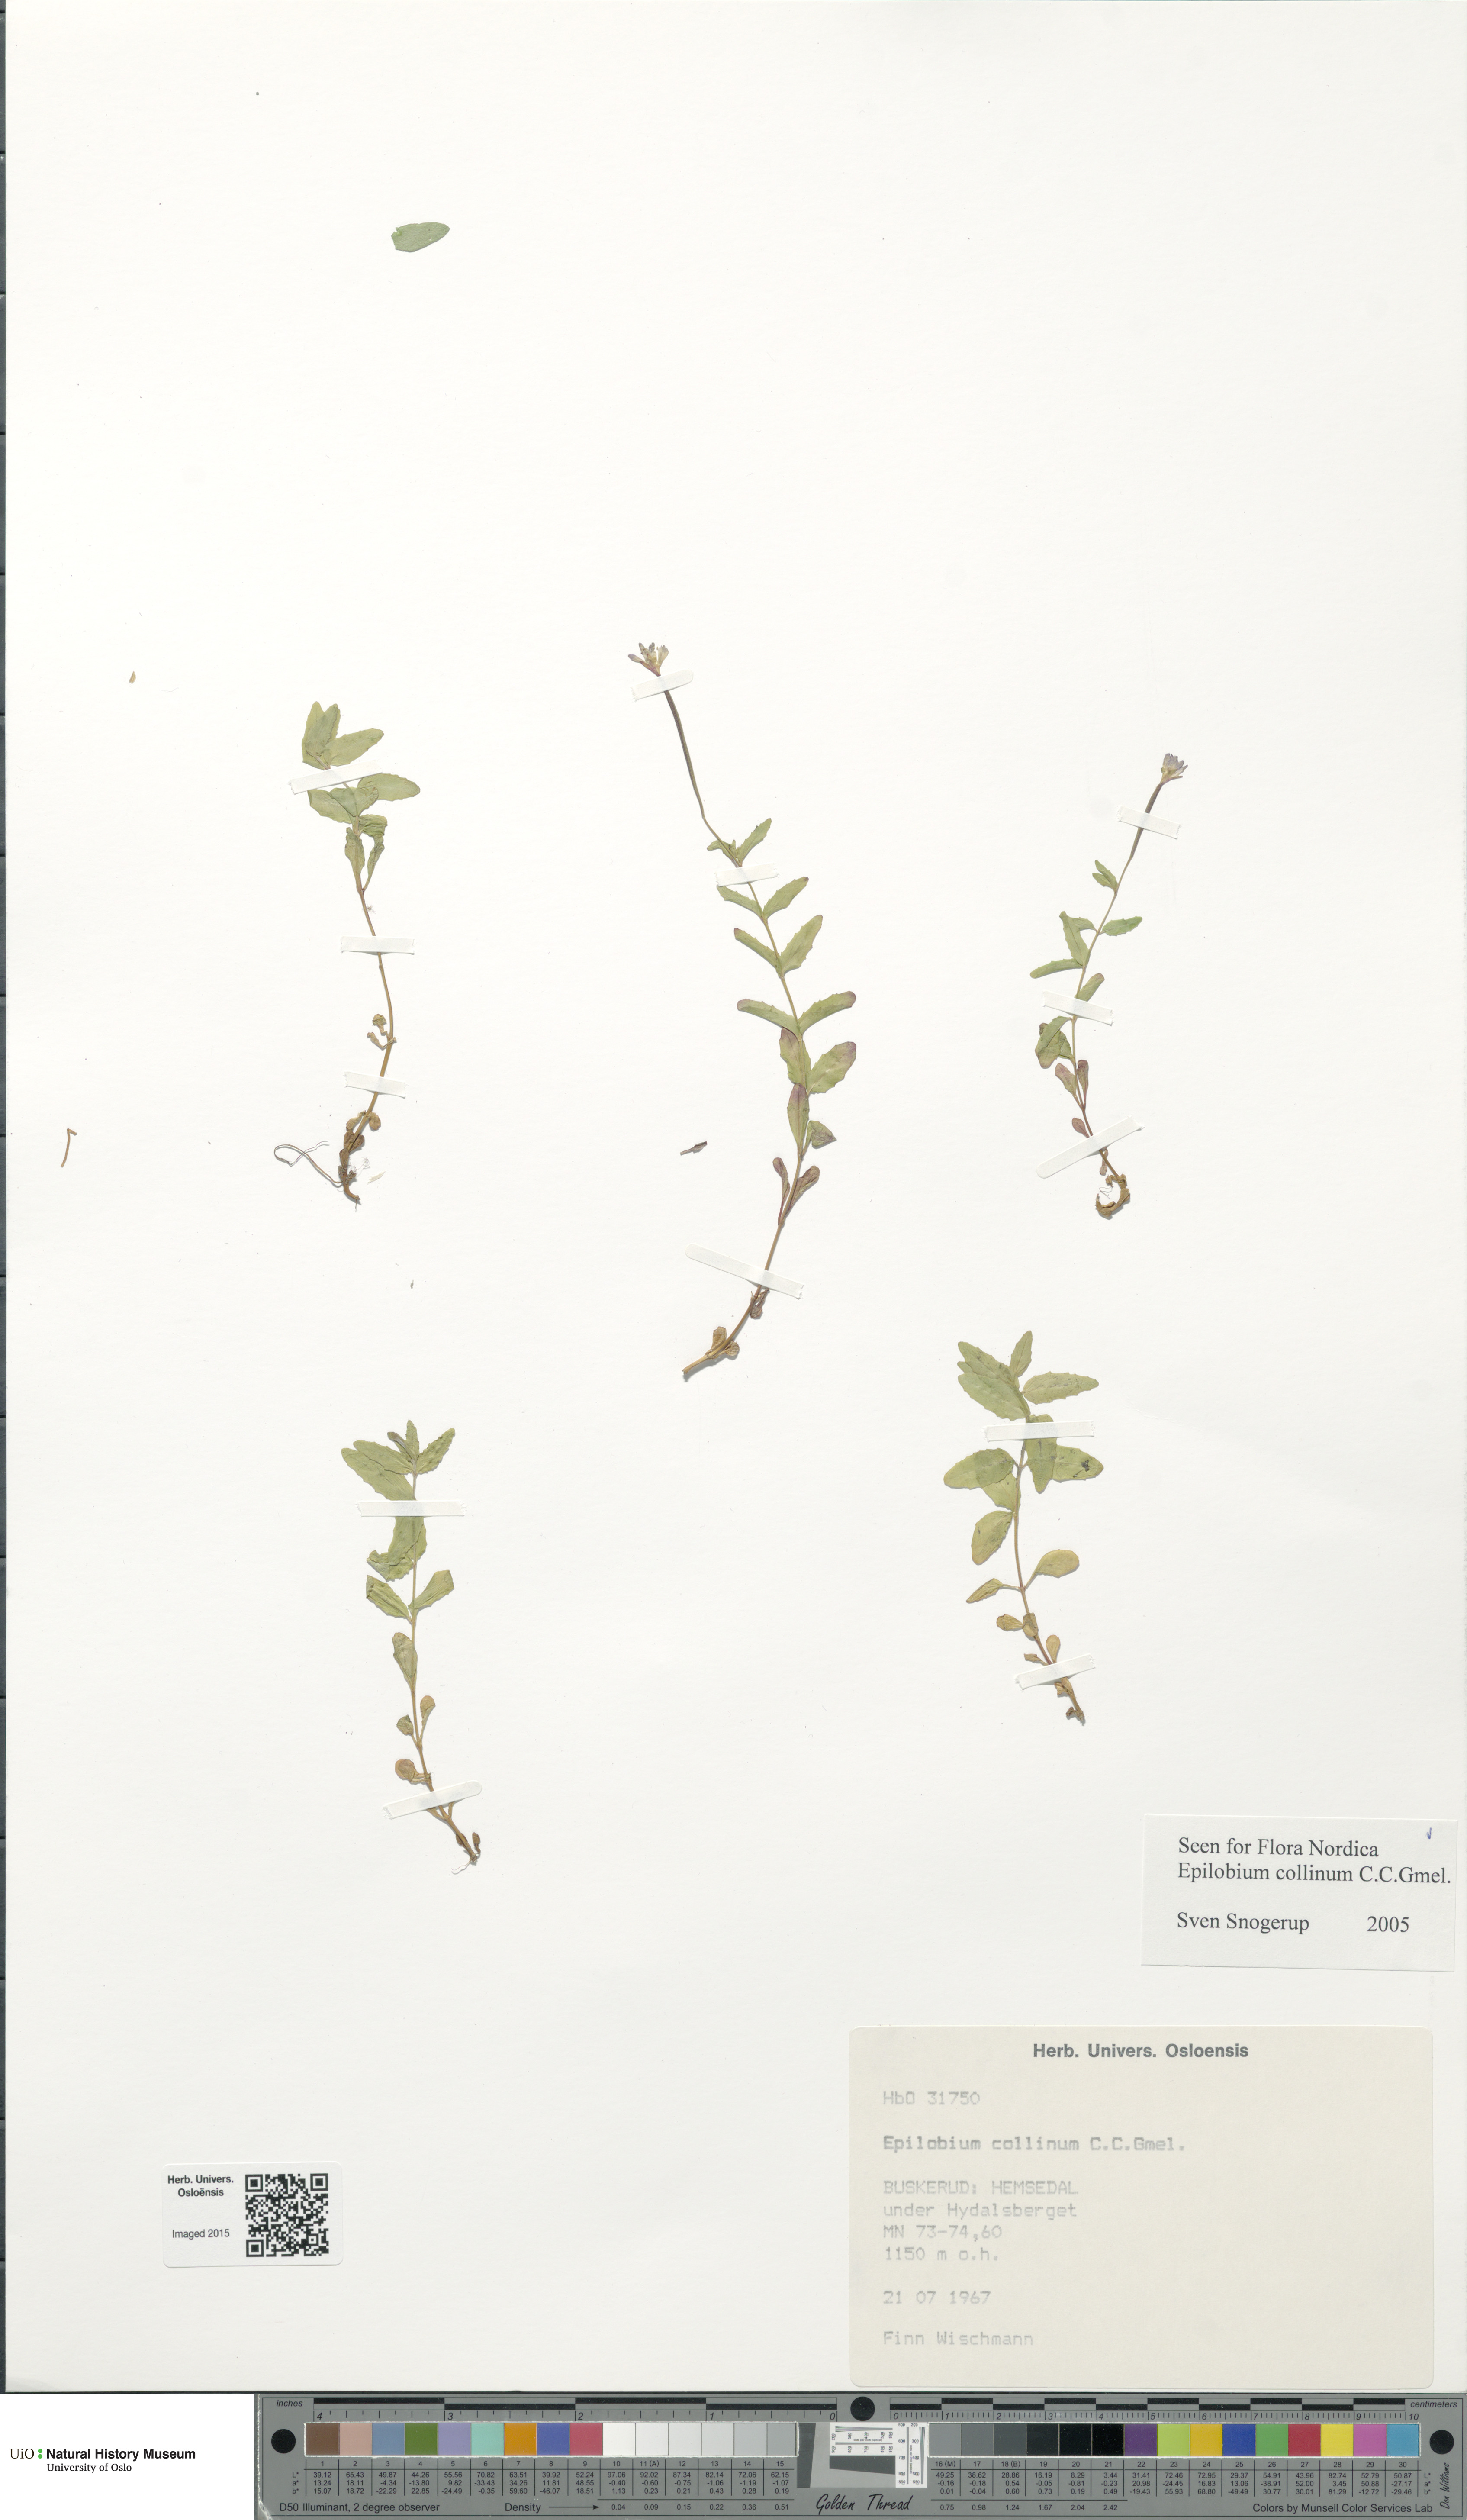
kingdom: Plantae
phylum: Tracheophyta
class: Magnoliopsida
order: Myrtales
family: Onagraceae
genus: Epilobium
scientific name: Epilobium collinum
